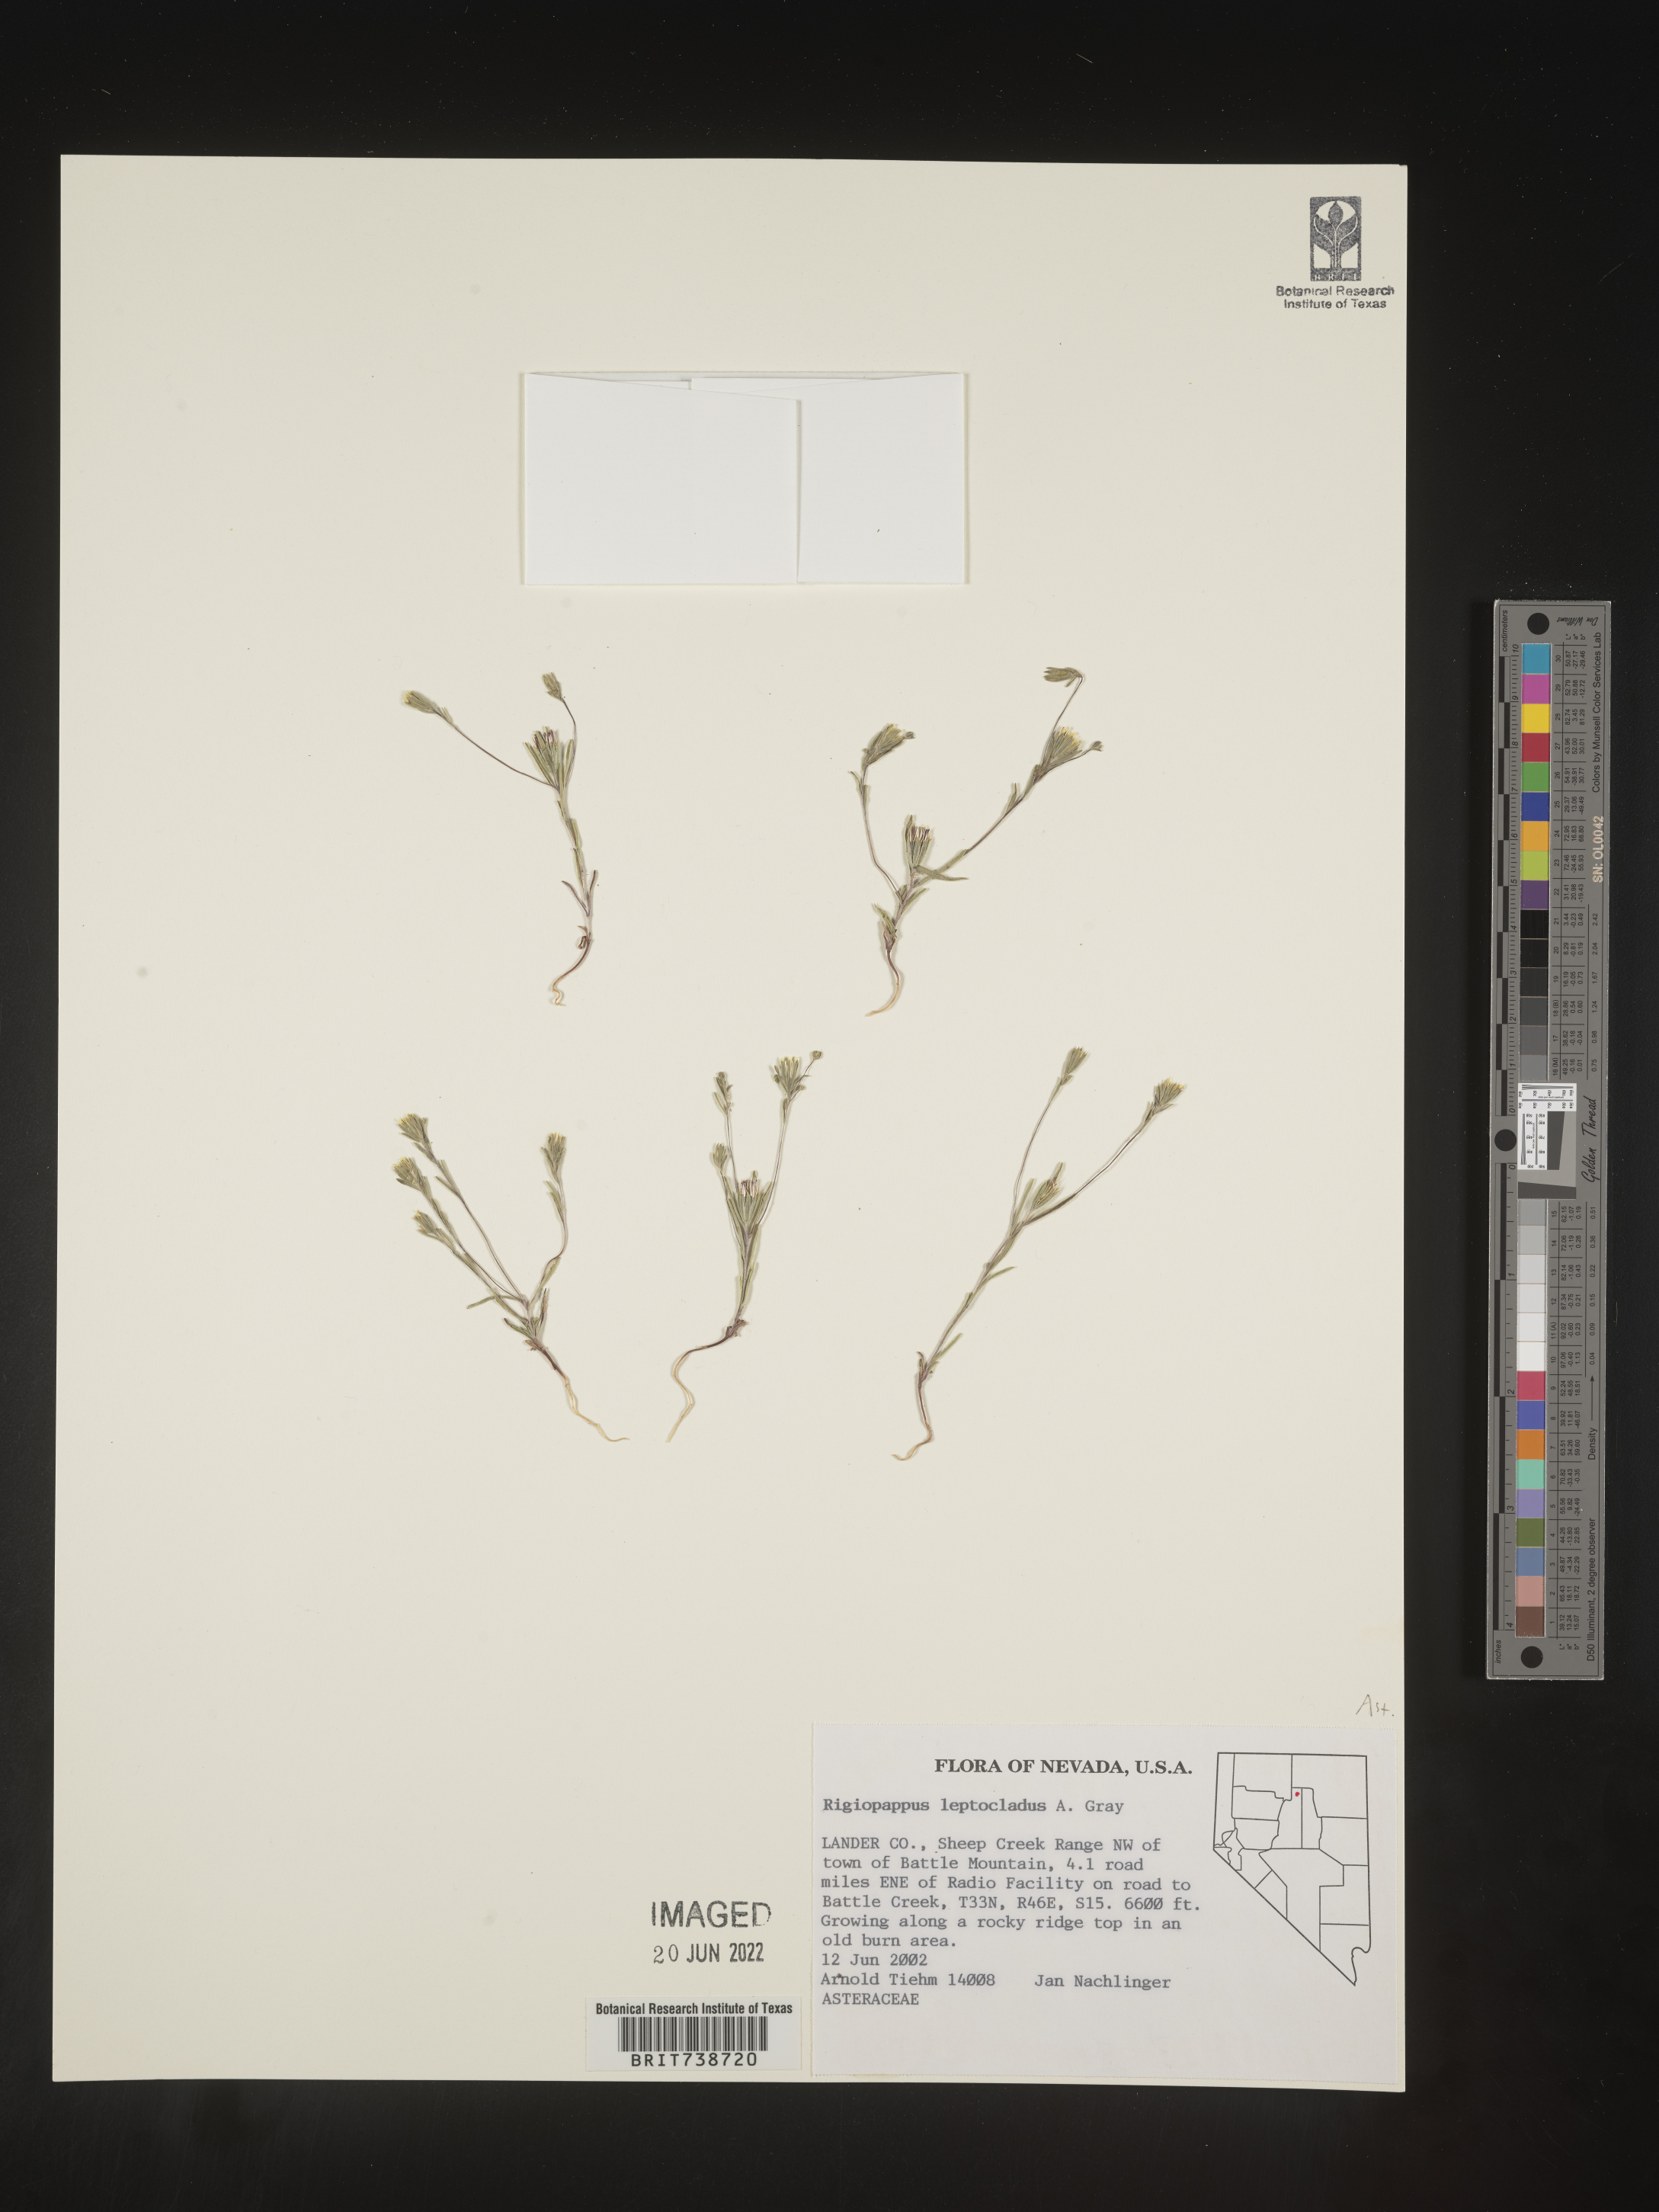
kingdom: Plantae
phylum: Tracheophyta
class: Magnoliopsida
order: Asterales
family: Asteraceae
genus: Rigiopappus
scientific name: Rigiopappus
